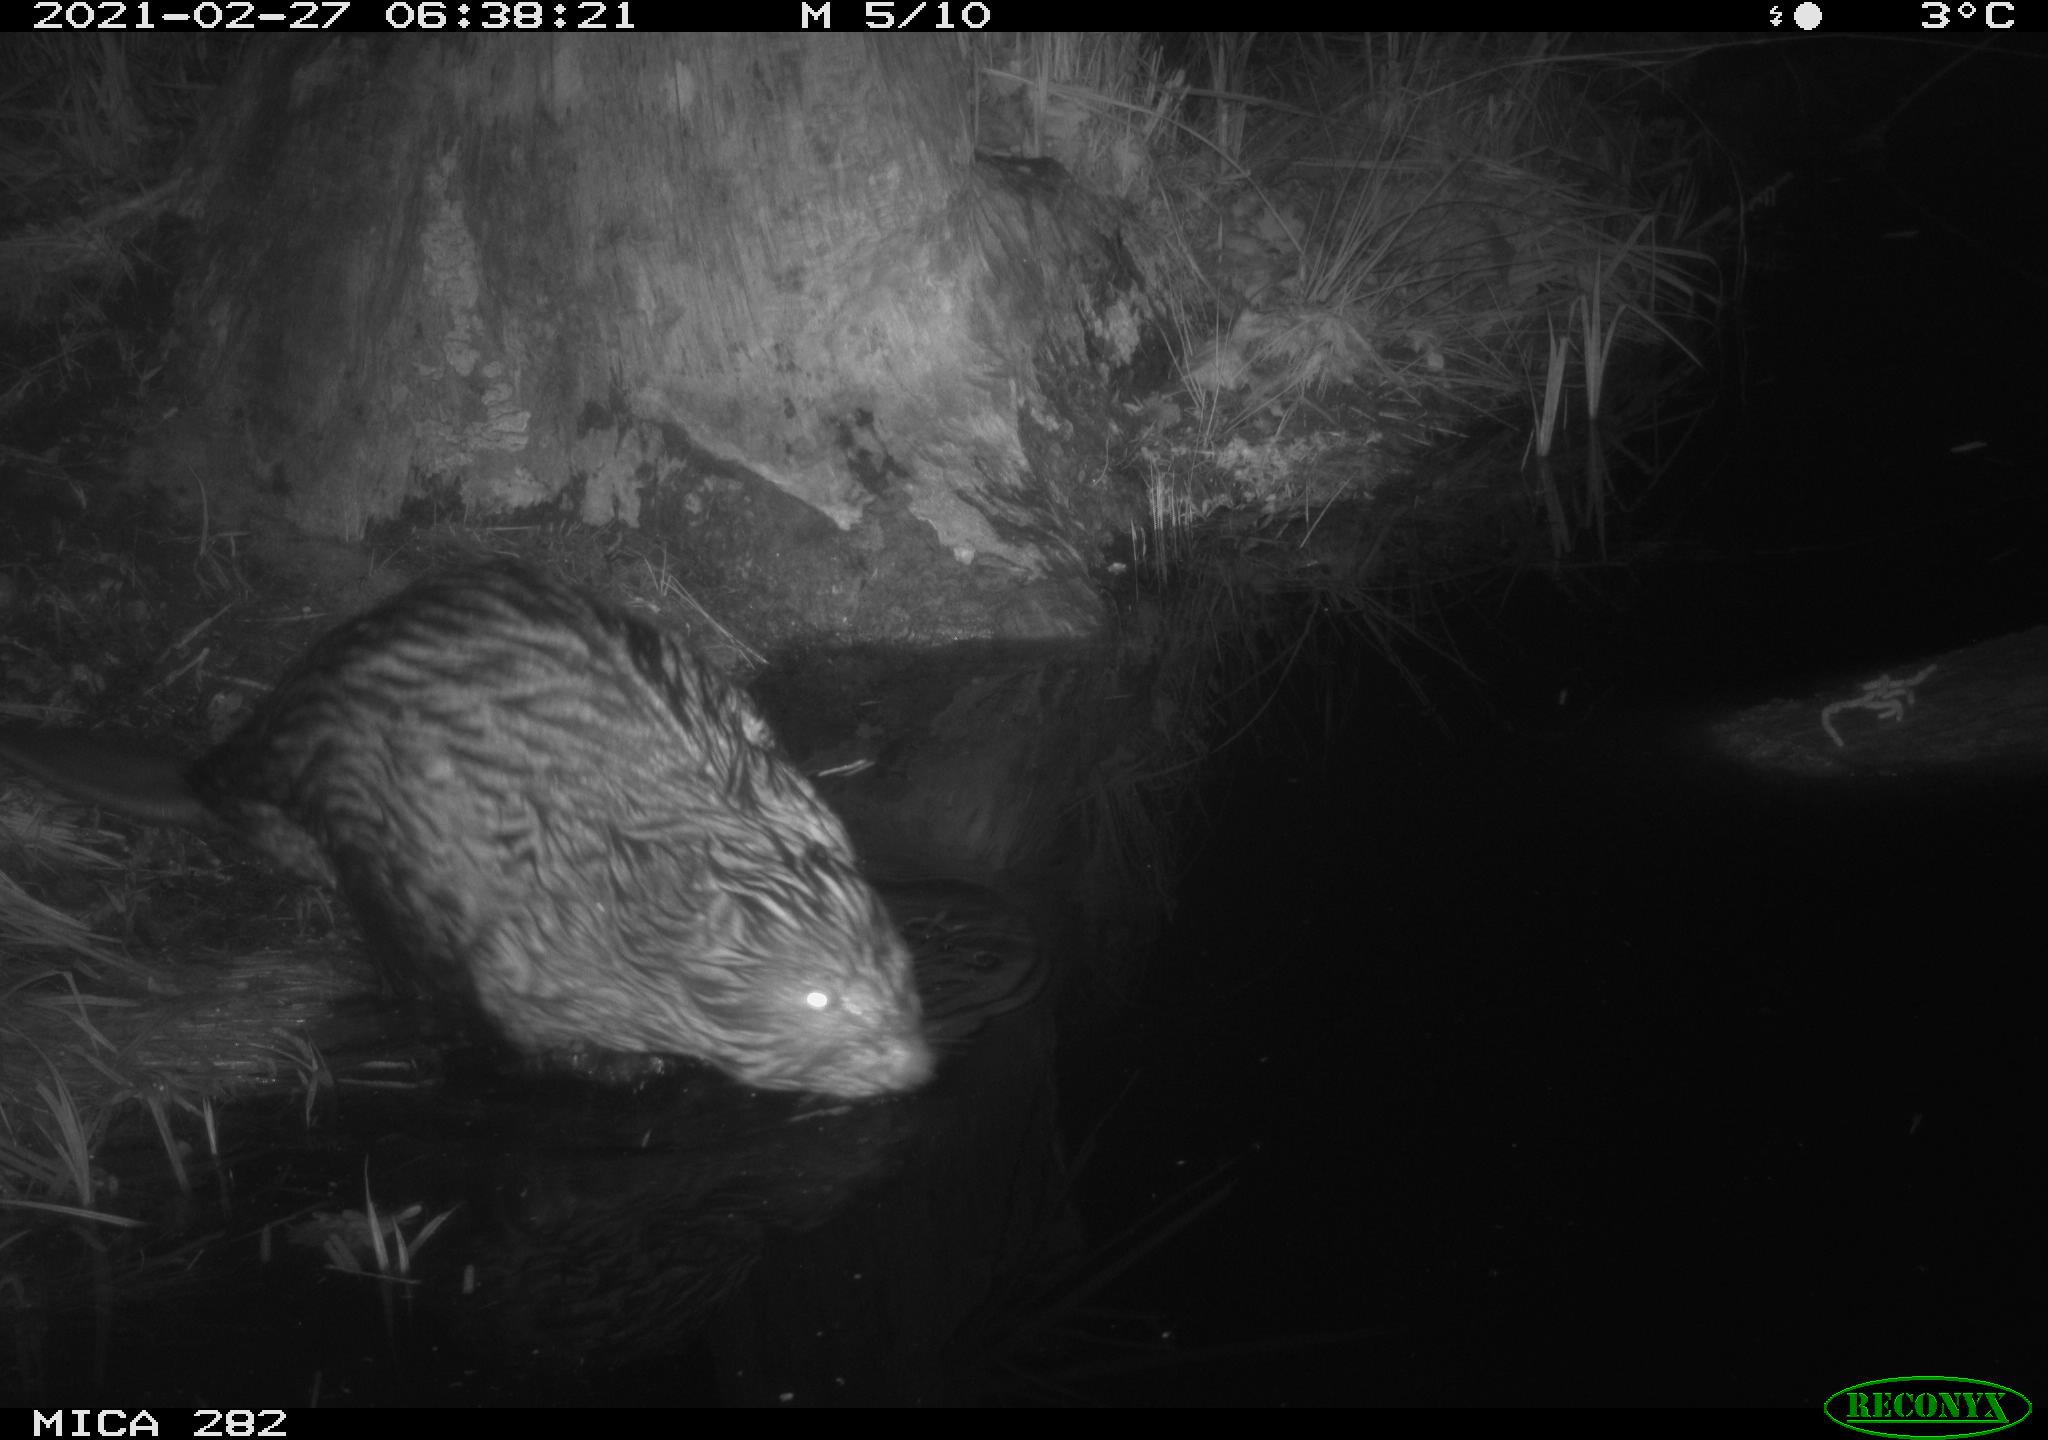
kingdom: Animalia
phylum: Chordata
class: Mammalia
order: Rodentia
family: Castoridae
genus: Castor
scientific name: Castor fiber
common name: Eurasian beaver
